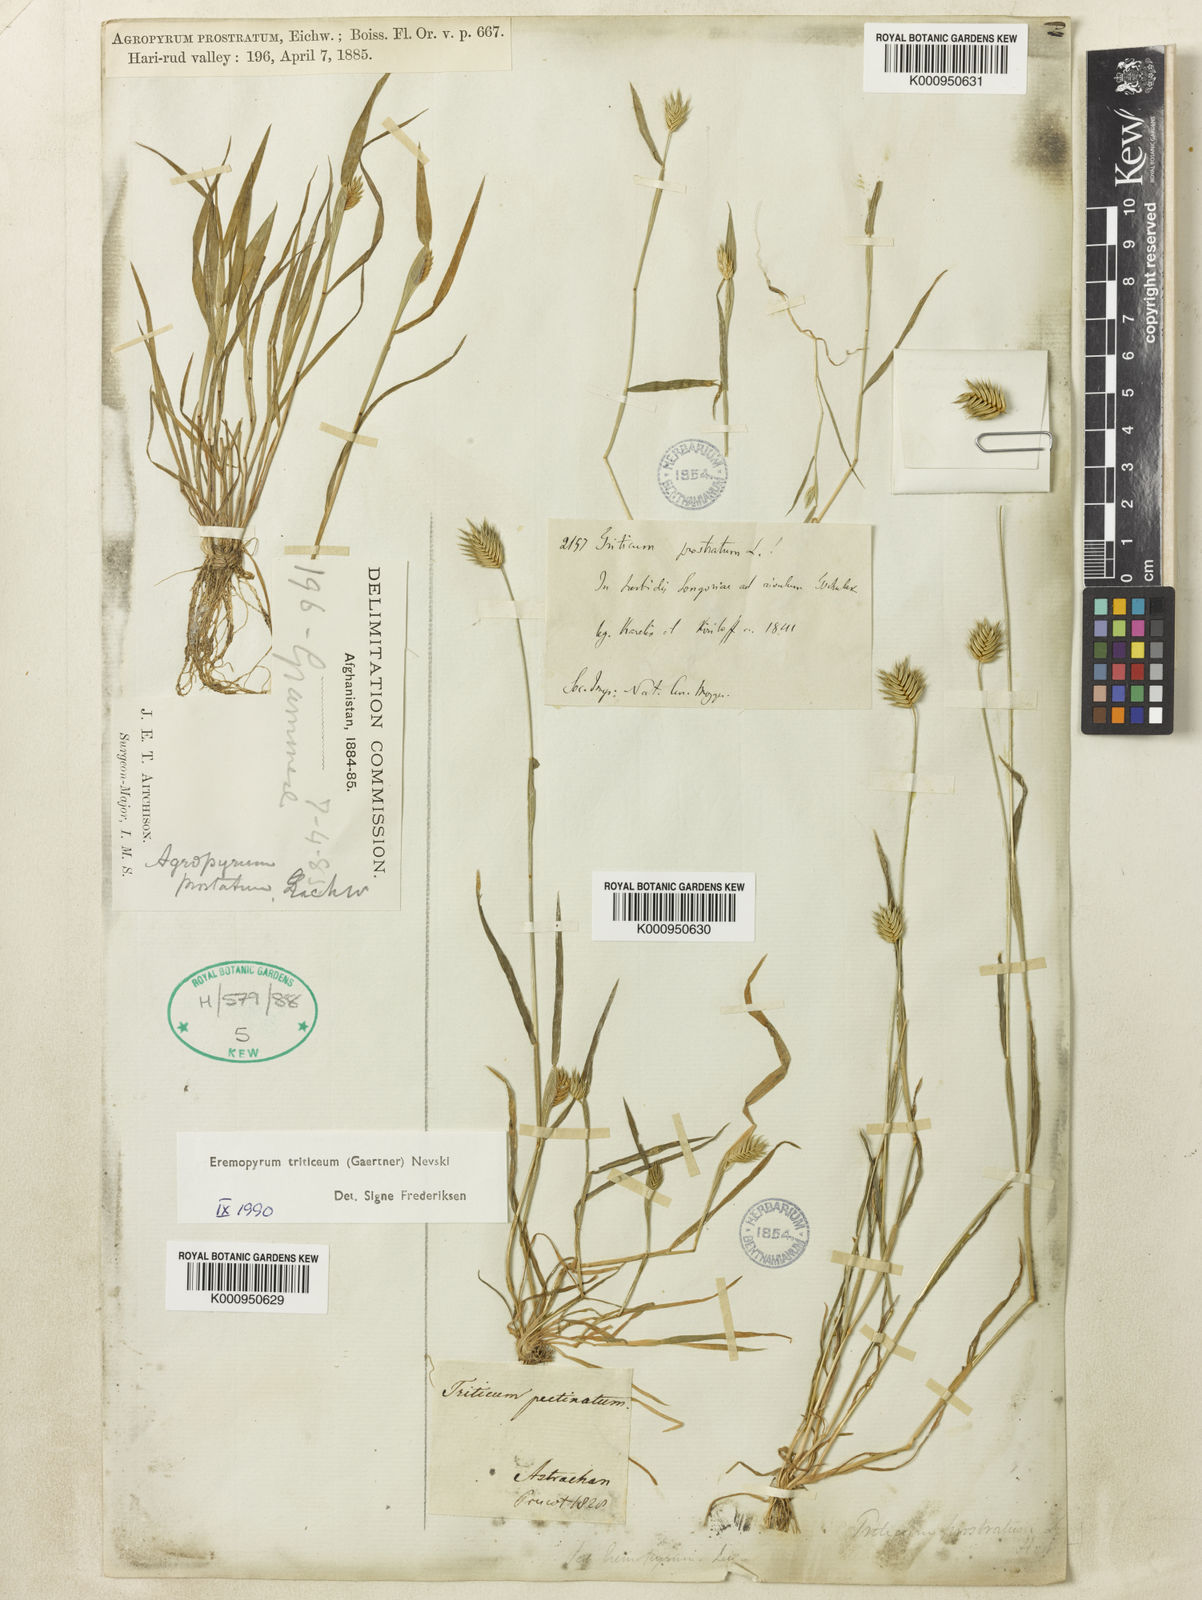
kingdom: Plantae
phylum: Tracheophyta
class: Liliopsida
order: Poales
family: Poaceae
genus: Eremopyrum
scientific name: Eremopyrum triticeum
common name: Annual wheatgrass
